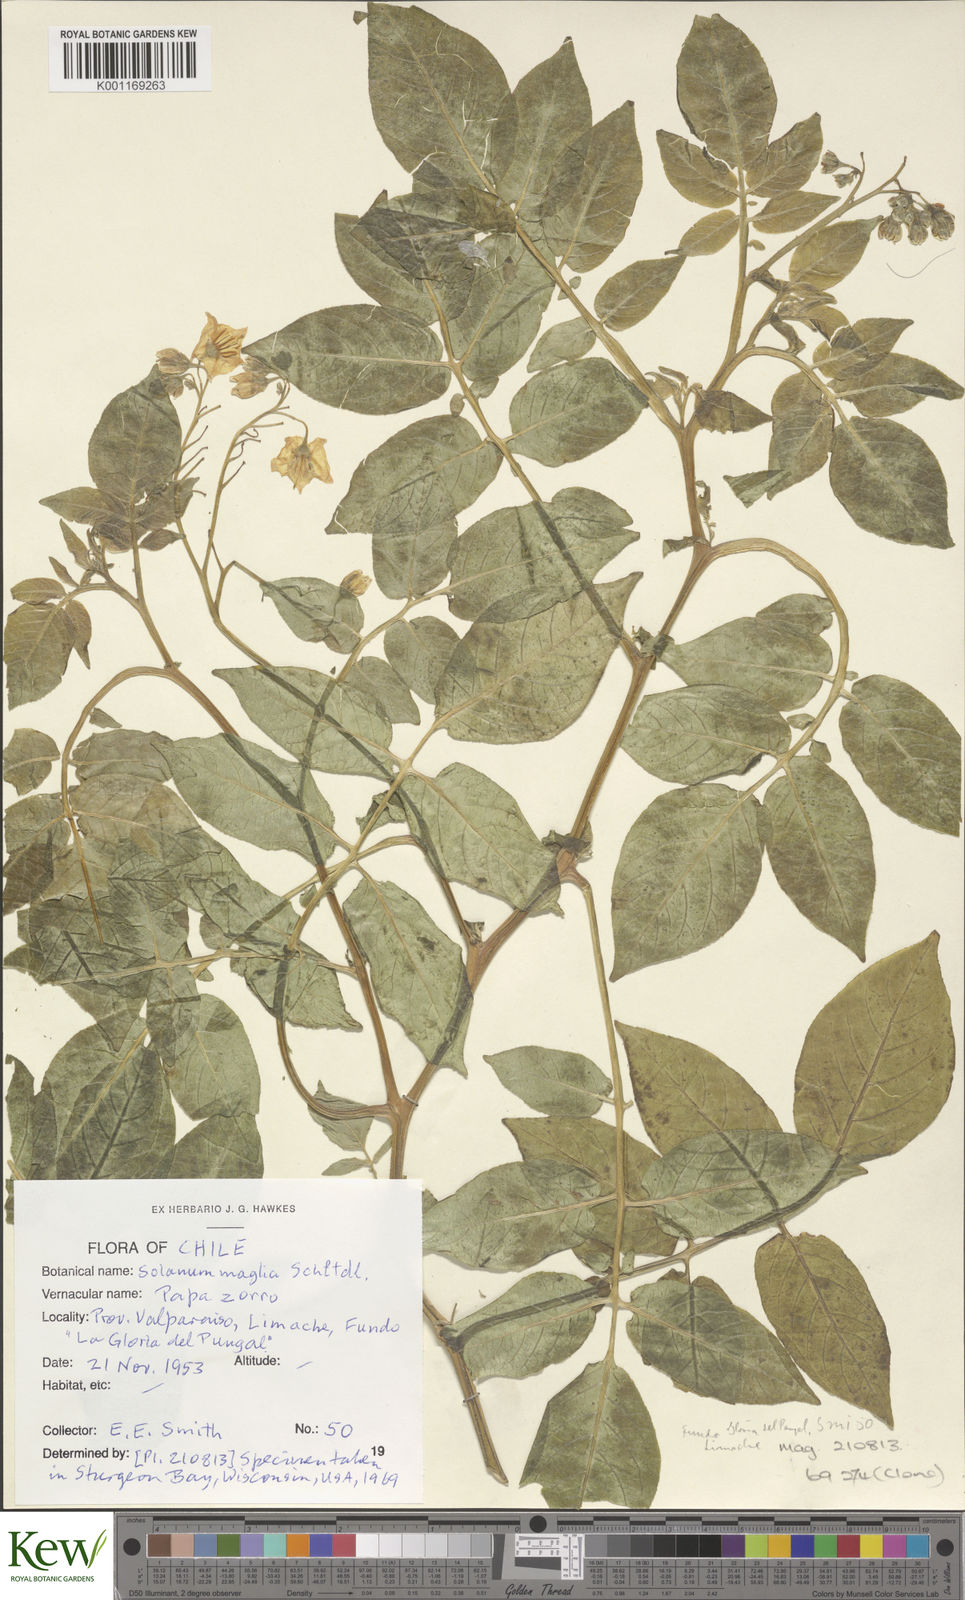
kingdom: Plantae
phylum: Tracheophyta
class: Magnoliopsida
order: Solanales
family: Solanaceae
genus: Solanum
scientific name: Solanum maglia
